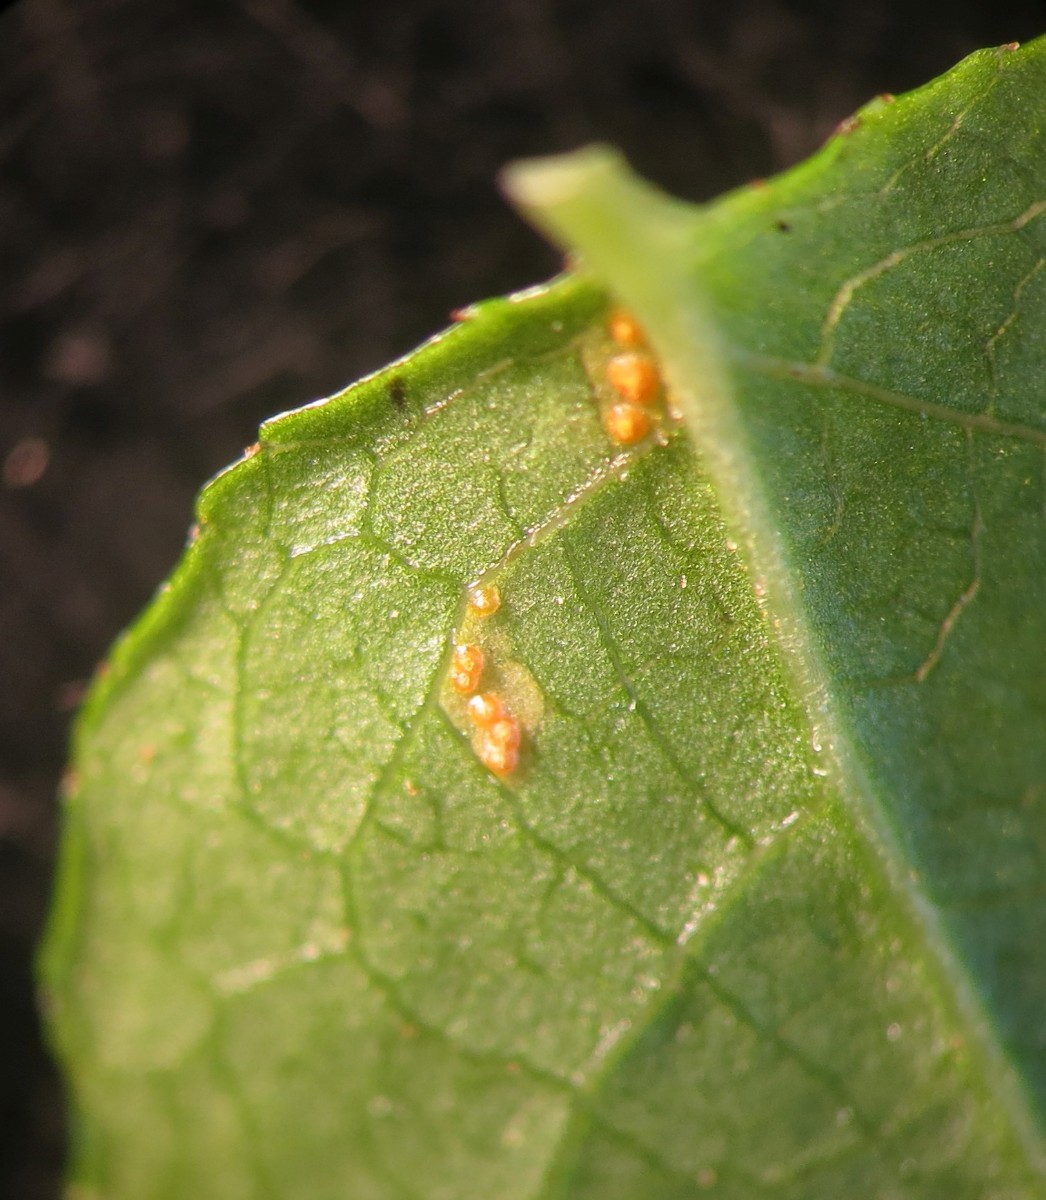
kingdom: Fungi
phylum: Basidiomycota
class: Pucciniomycetes
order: Pucciniales
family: Pucciniastraceae
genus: Naohidemyces
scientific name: Naohidemyces vaccinii
